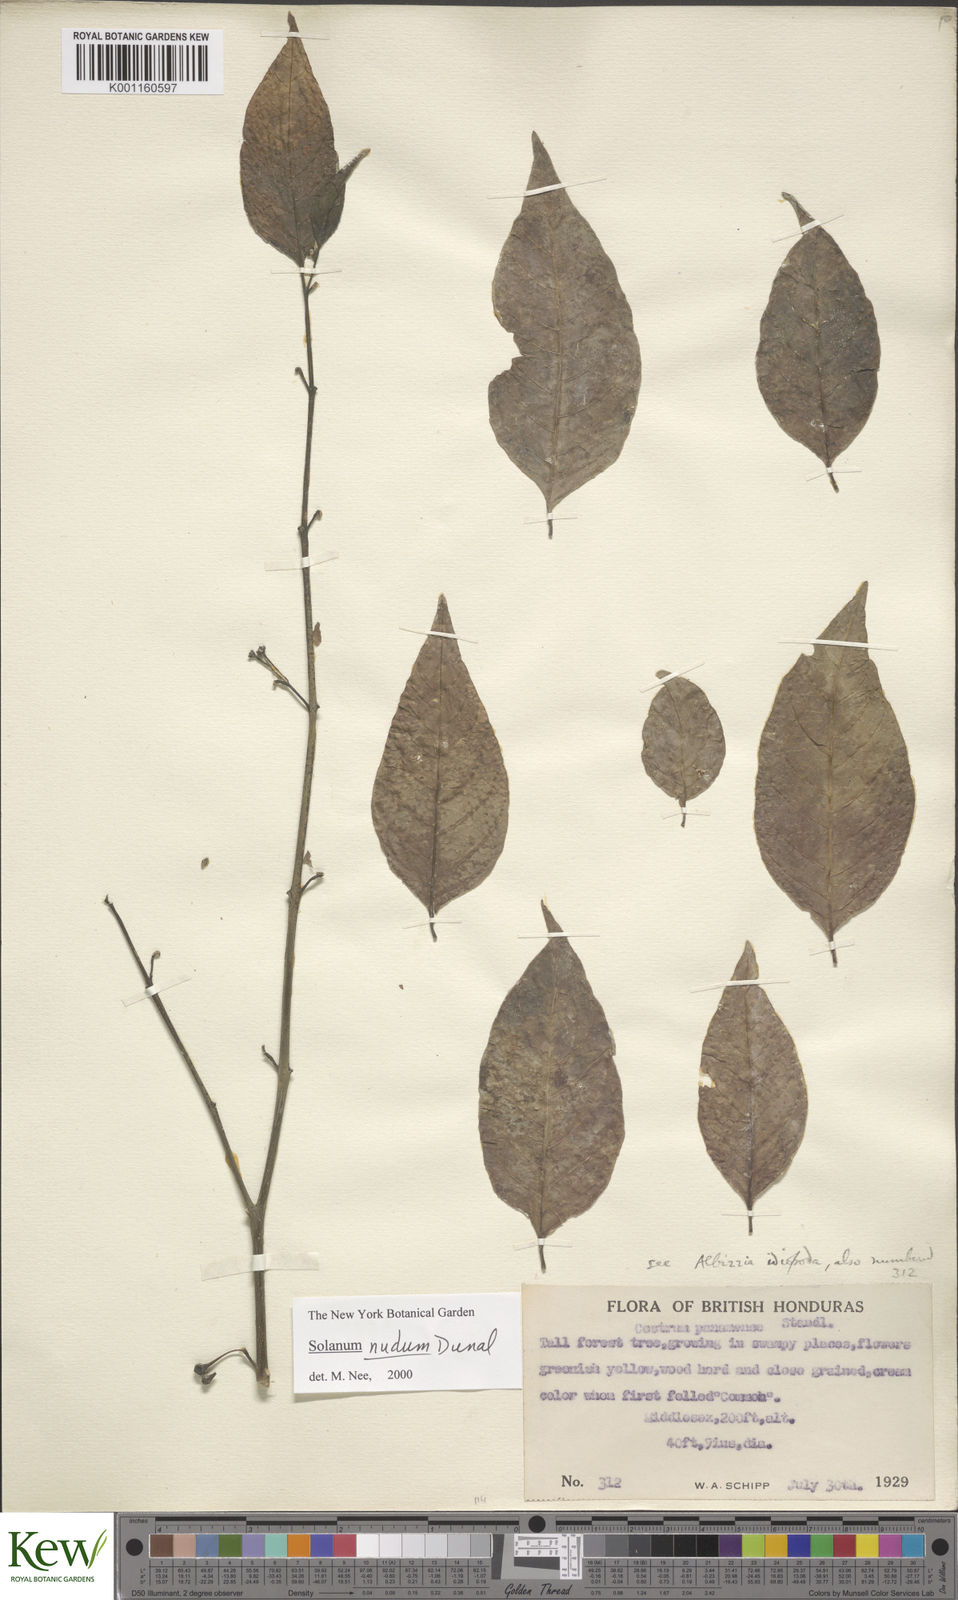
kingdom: Plantae
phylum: Tracheophyta
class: Magnoliopsida
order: Solanales
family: Solanaceae
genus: Solanum
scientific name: Solanum nudum
